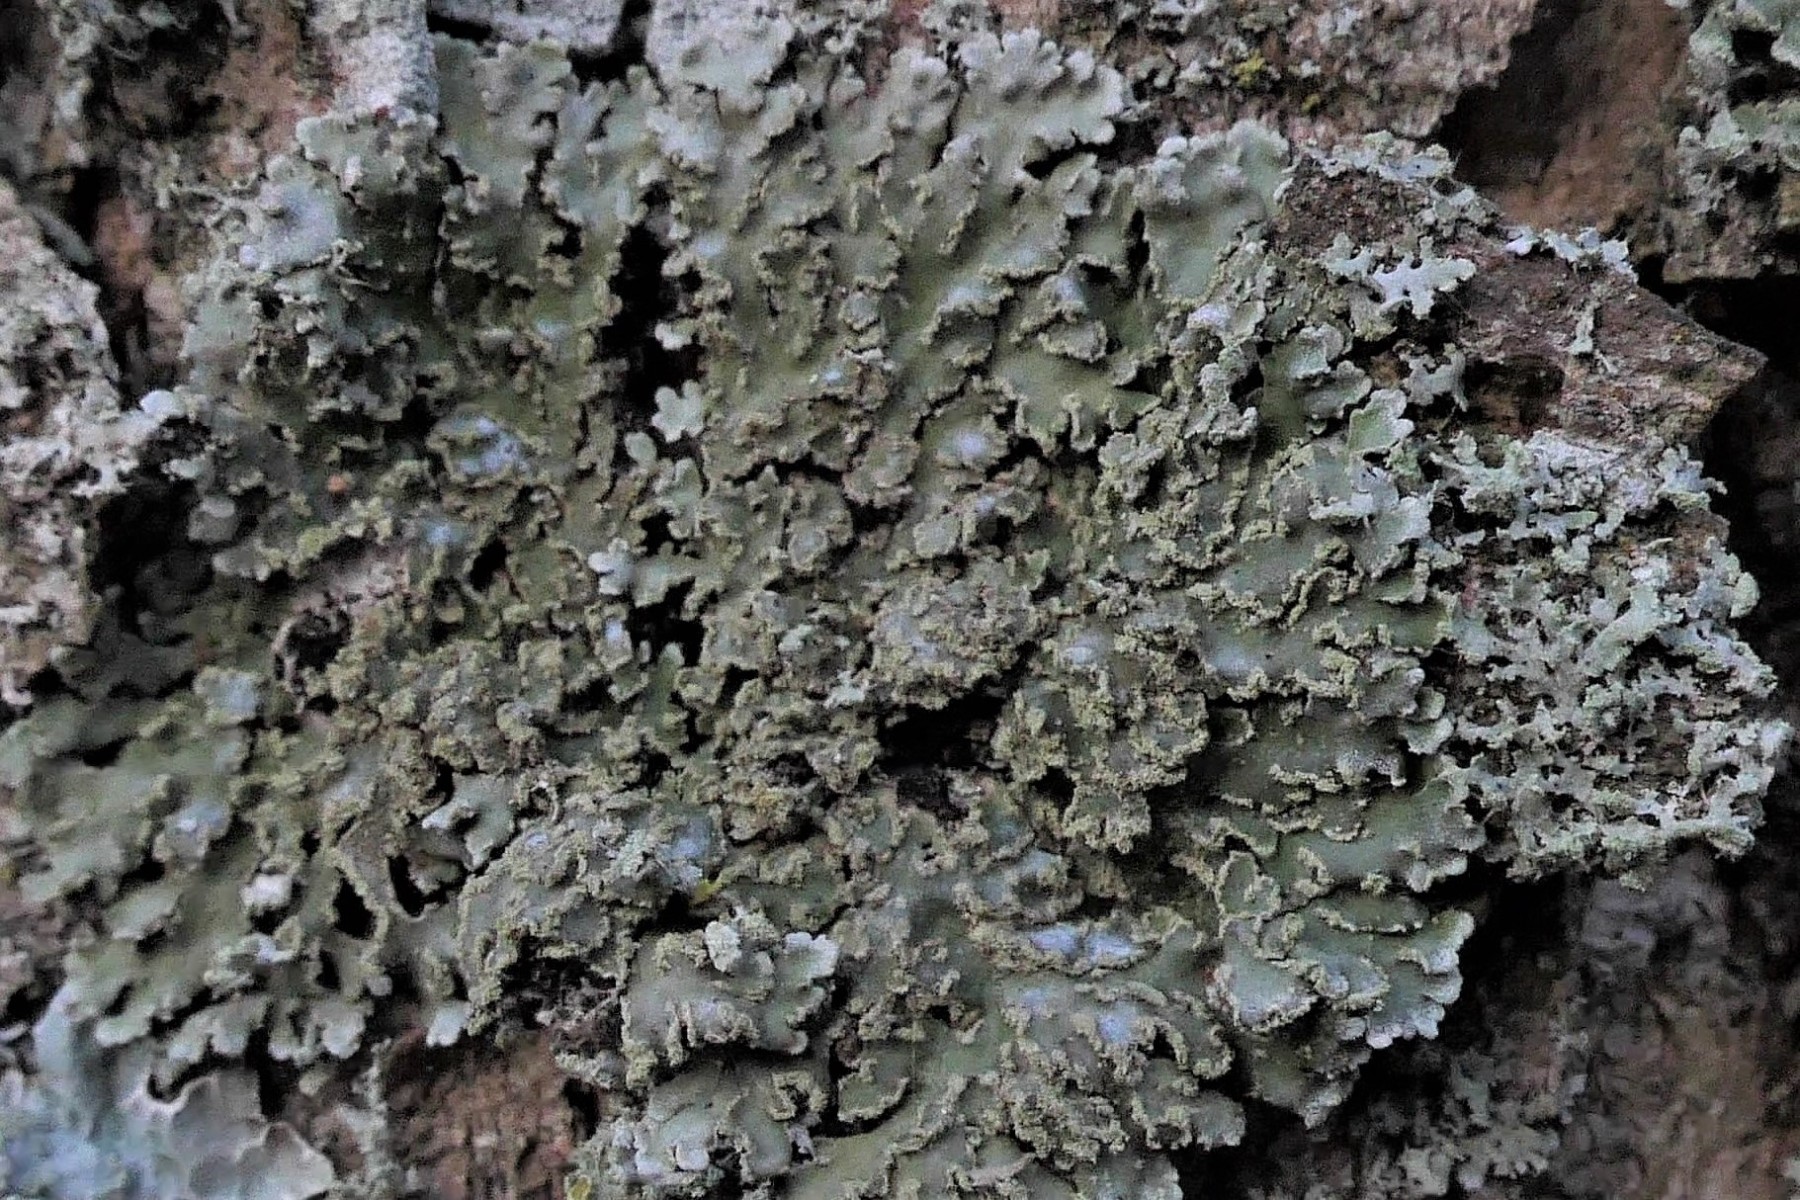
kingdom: Fungi
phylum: Ascomycota
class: Lecanoromycetes
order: Caliciales
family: Physciaceae
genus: Physconia
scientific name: Physconia perisidiosa
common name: liden dugrosetlav
